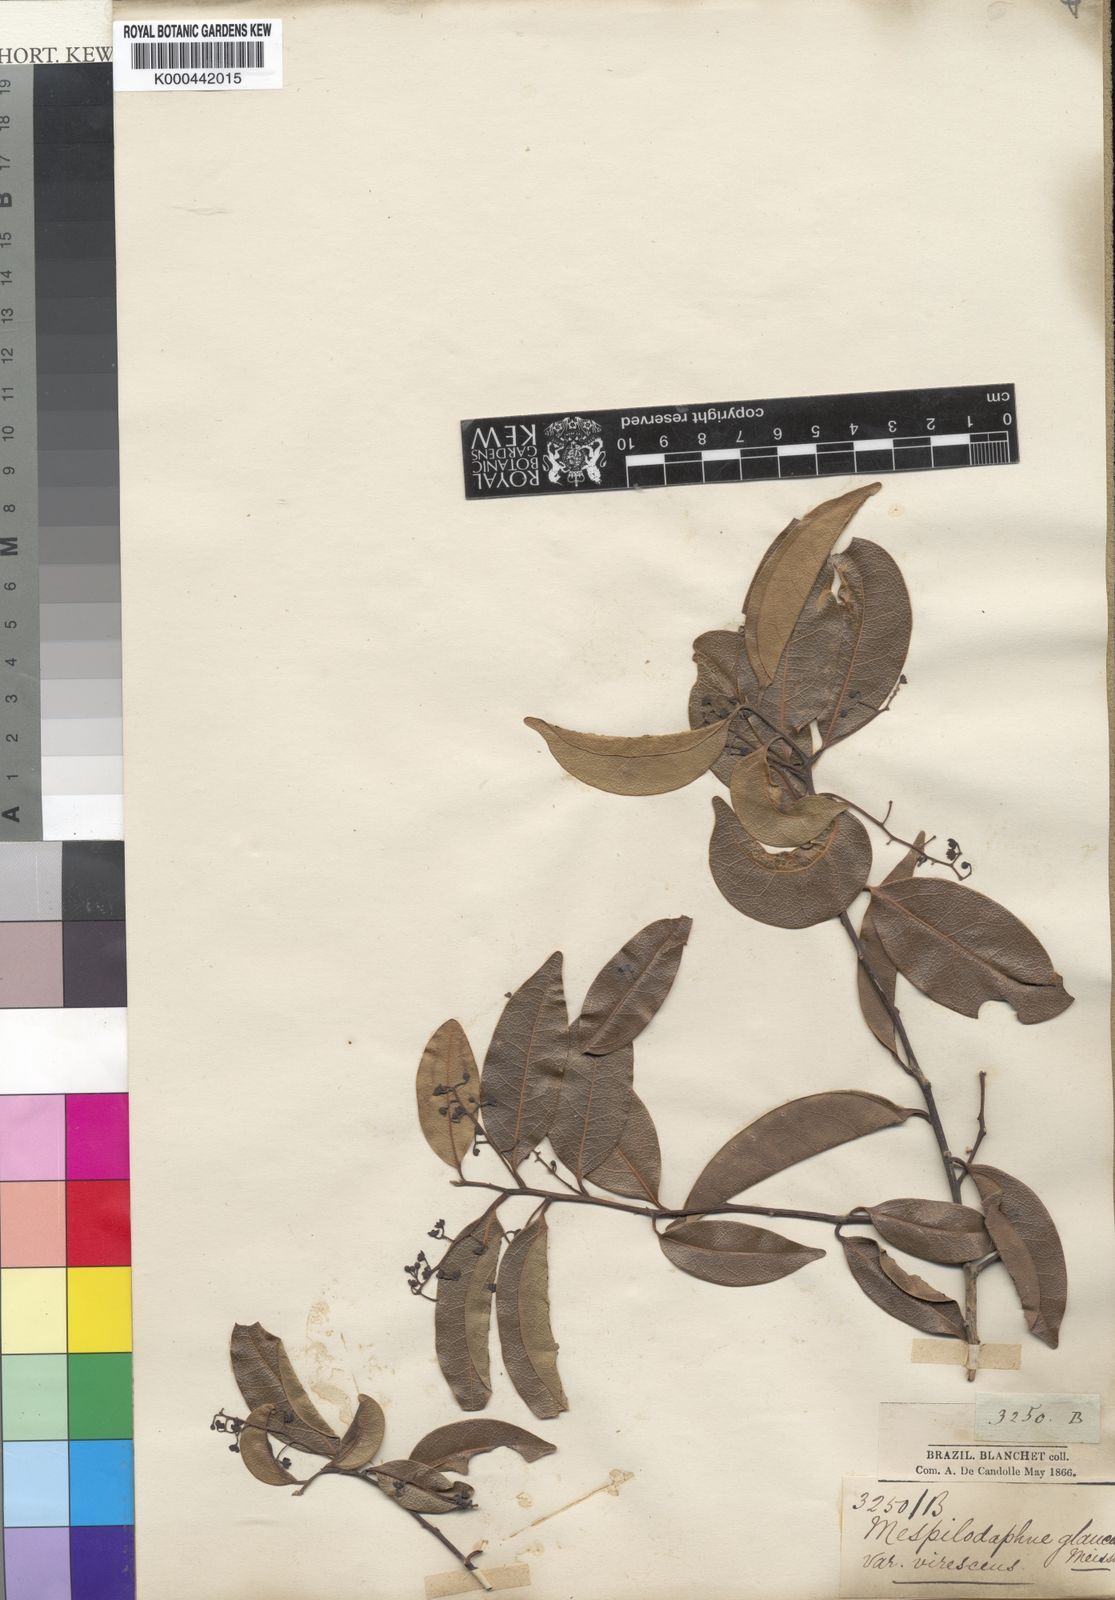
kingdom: Plantae
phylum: Tracheophyta
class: Magnoliopsida
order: Laurales
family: Lauraceae
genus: Mespilodaphne
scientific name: Mespilodaphne nutans
